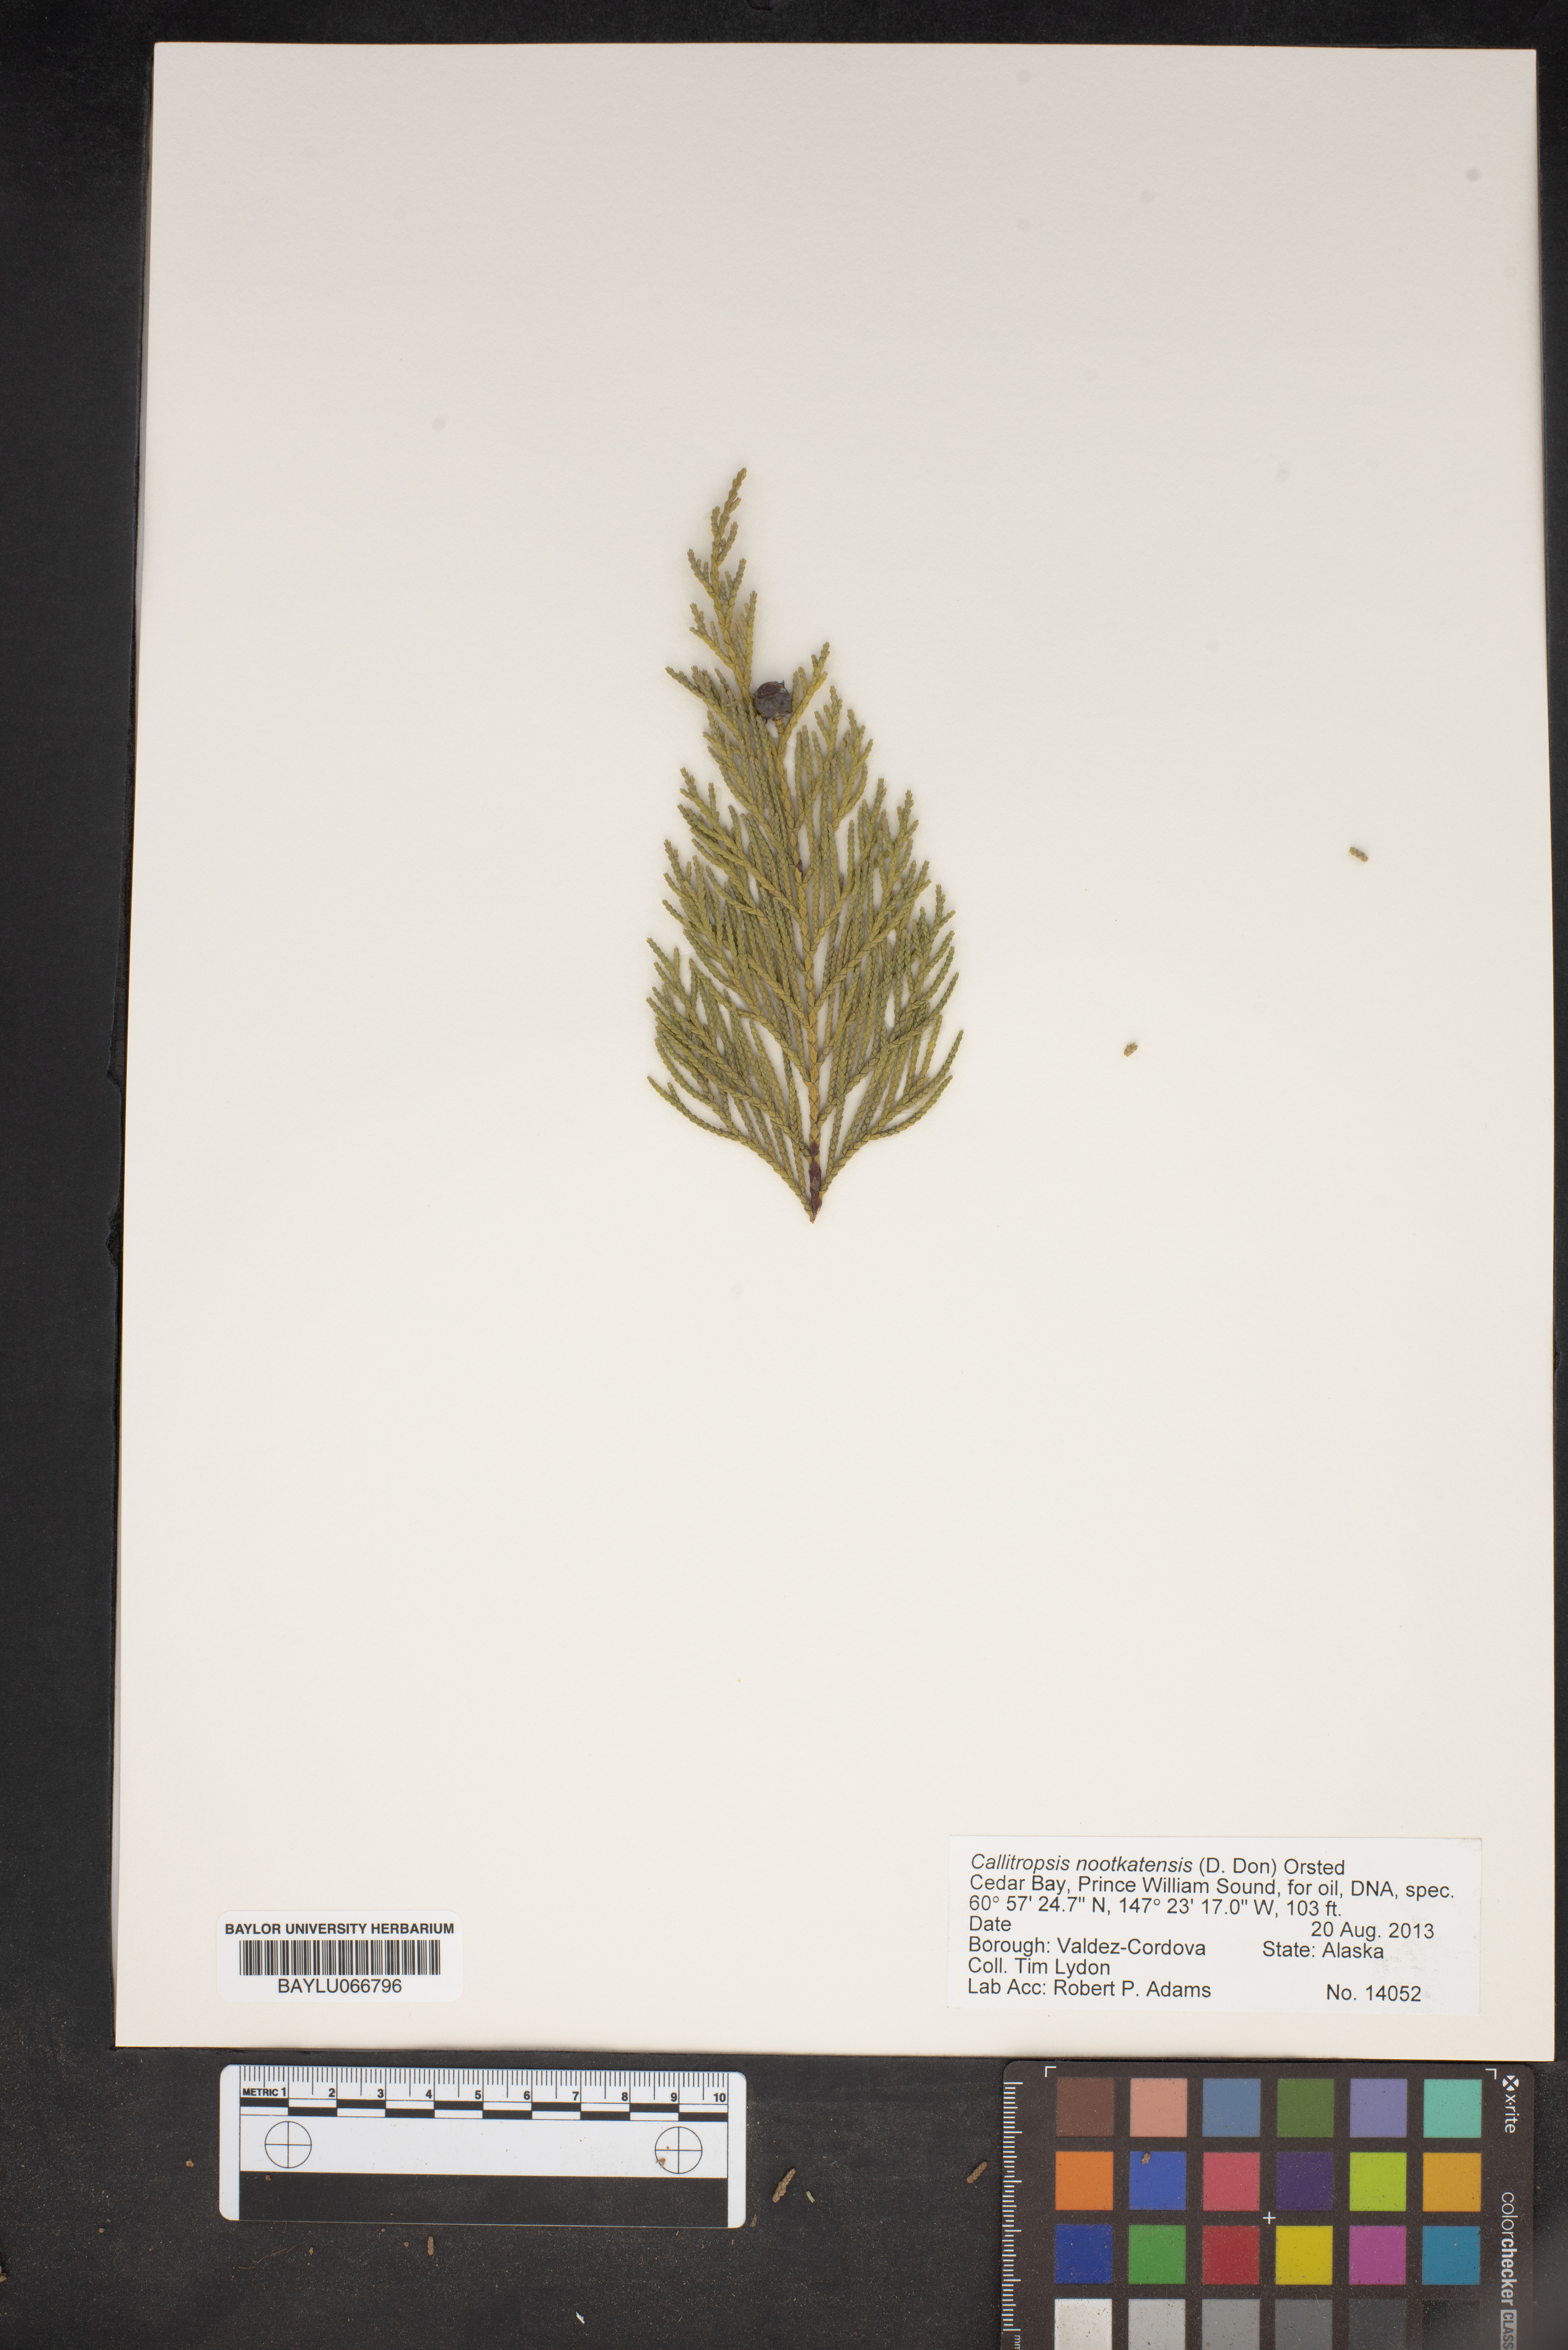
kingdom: Plantae
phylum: Tracheophyta
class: Pinopsida
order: Pinales
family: Cupressaceae
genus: Xanthocyparis
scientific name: Xanthocyparis nootkatensis
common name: Nootka cypress
